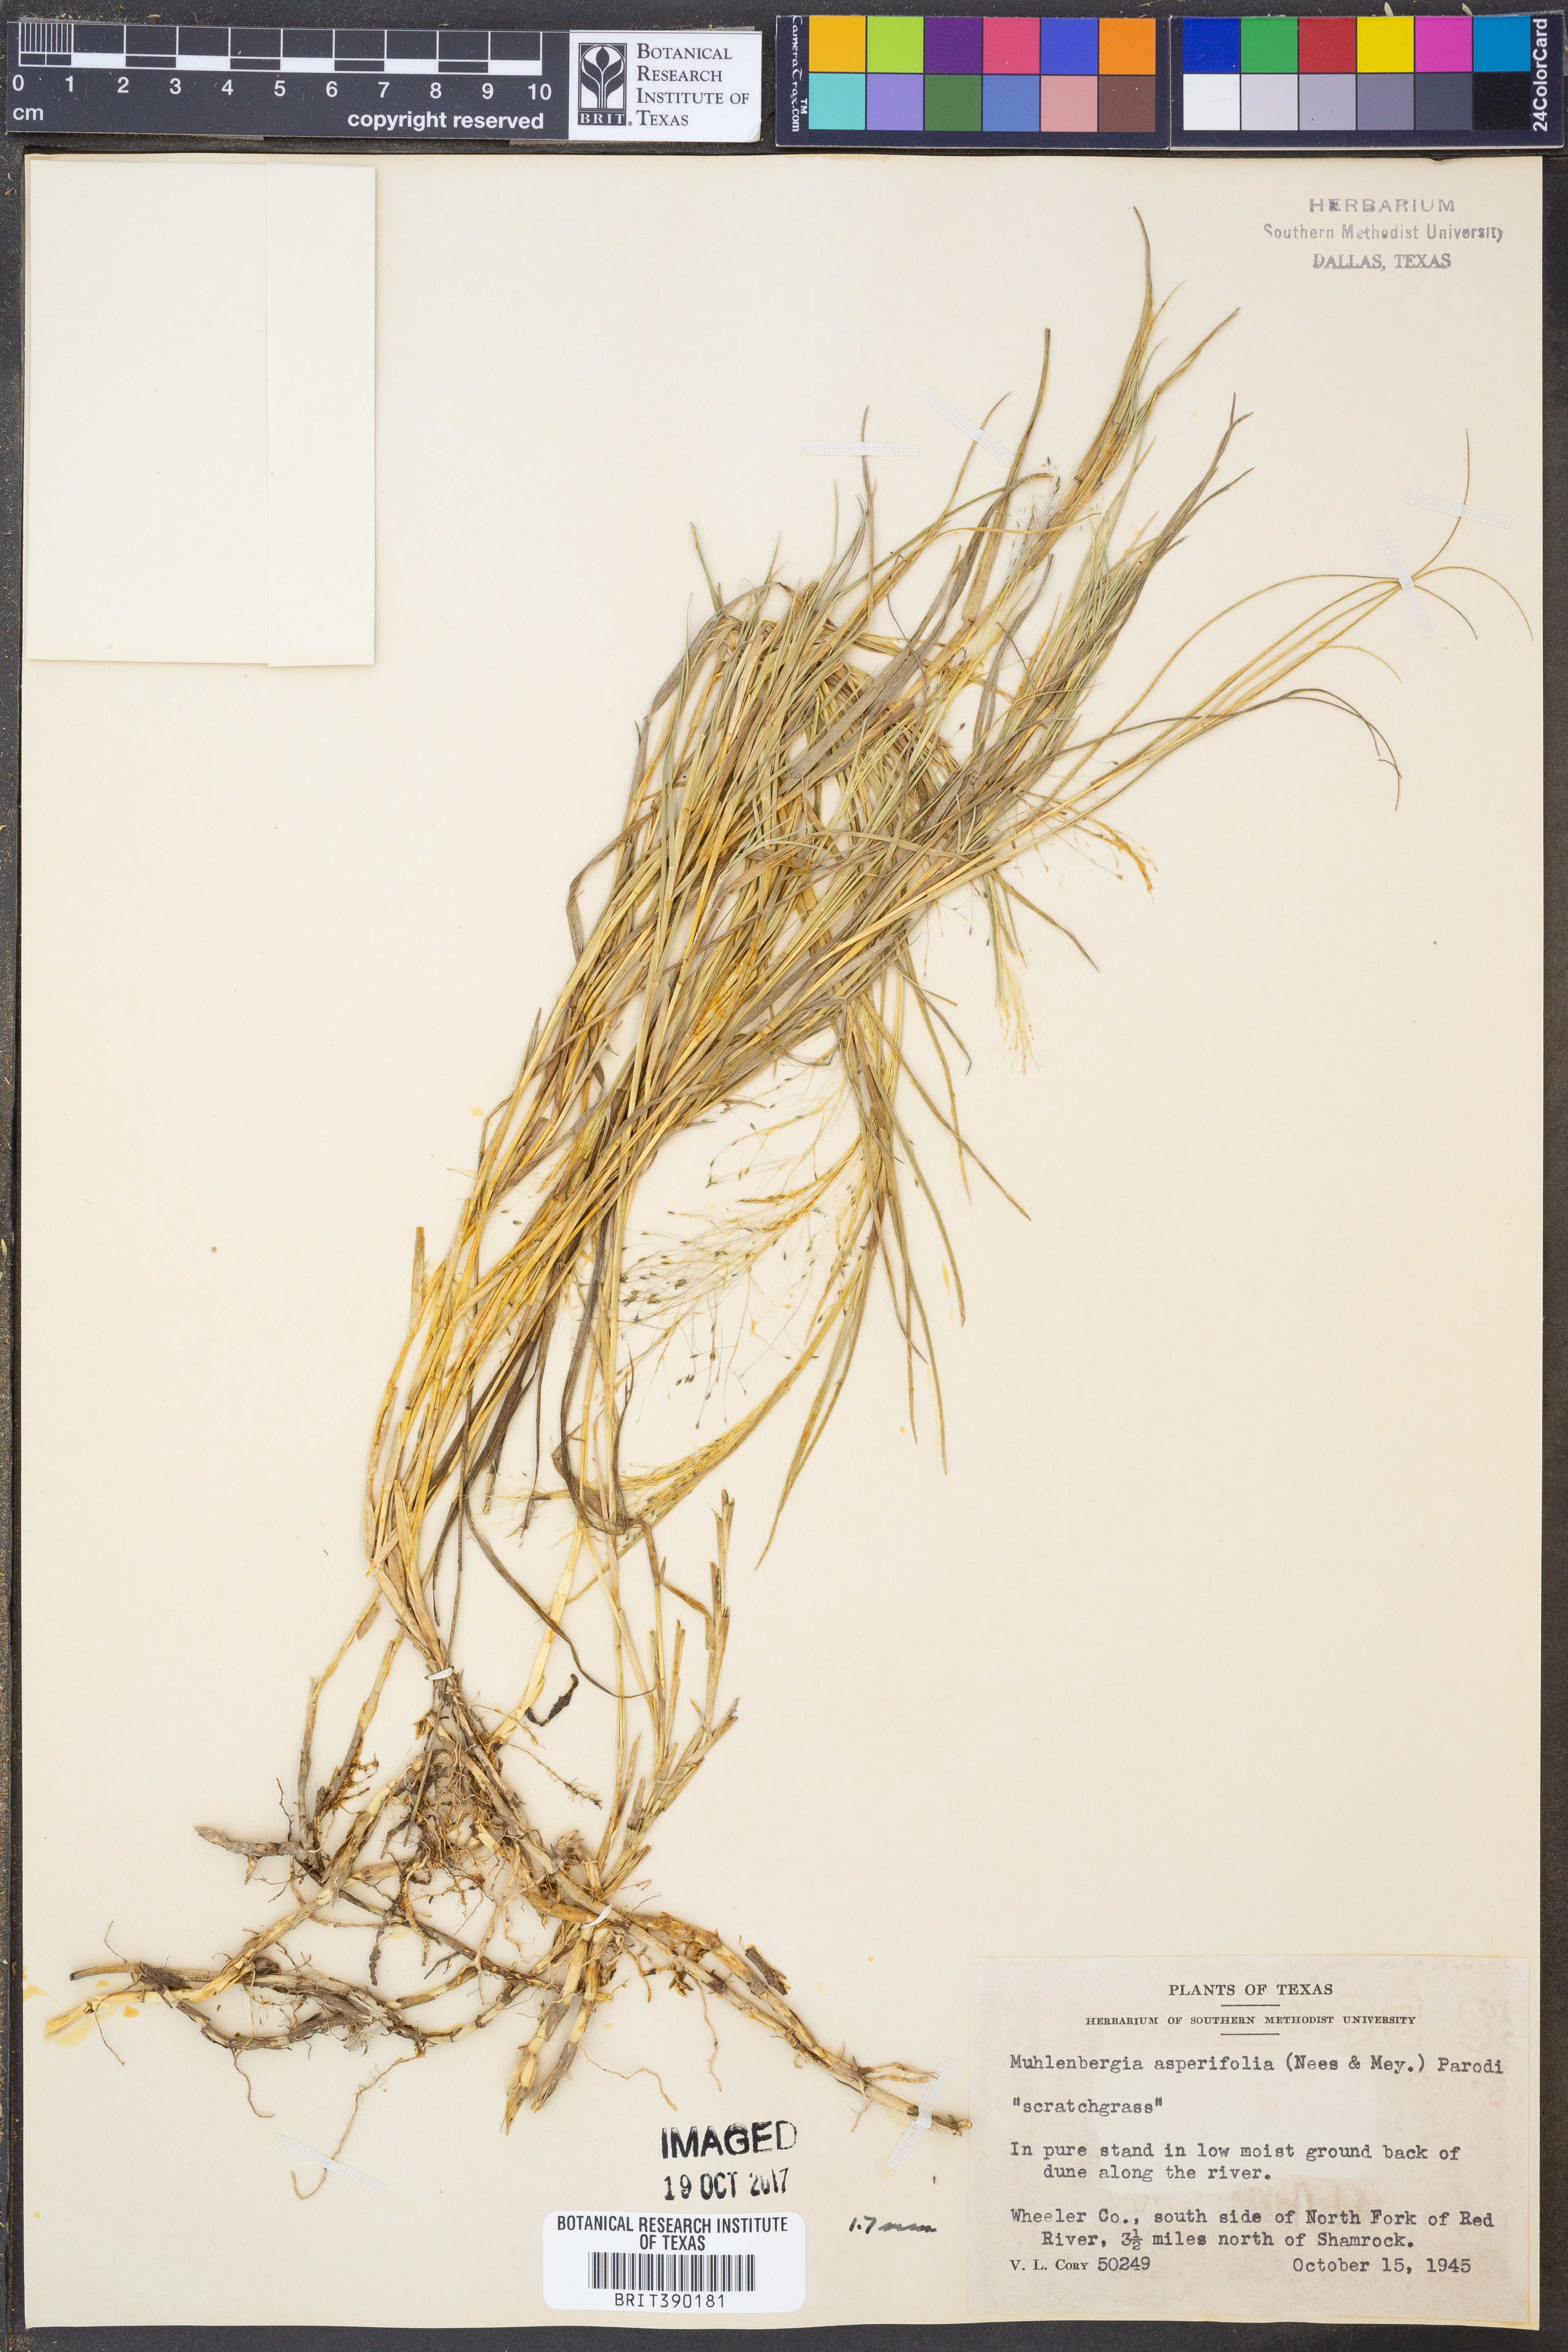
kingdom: Plantae
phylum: Tracheophyta
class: Liliopsida
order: Poales
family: Poaceae
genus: Muhlenbergia
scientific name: Muhlenbergia asperifolia
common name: Alkali muhly
